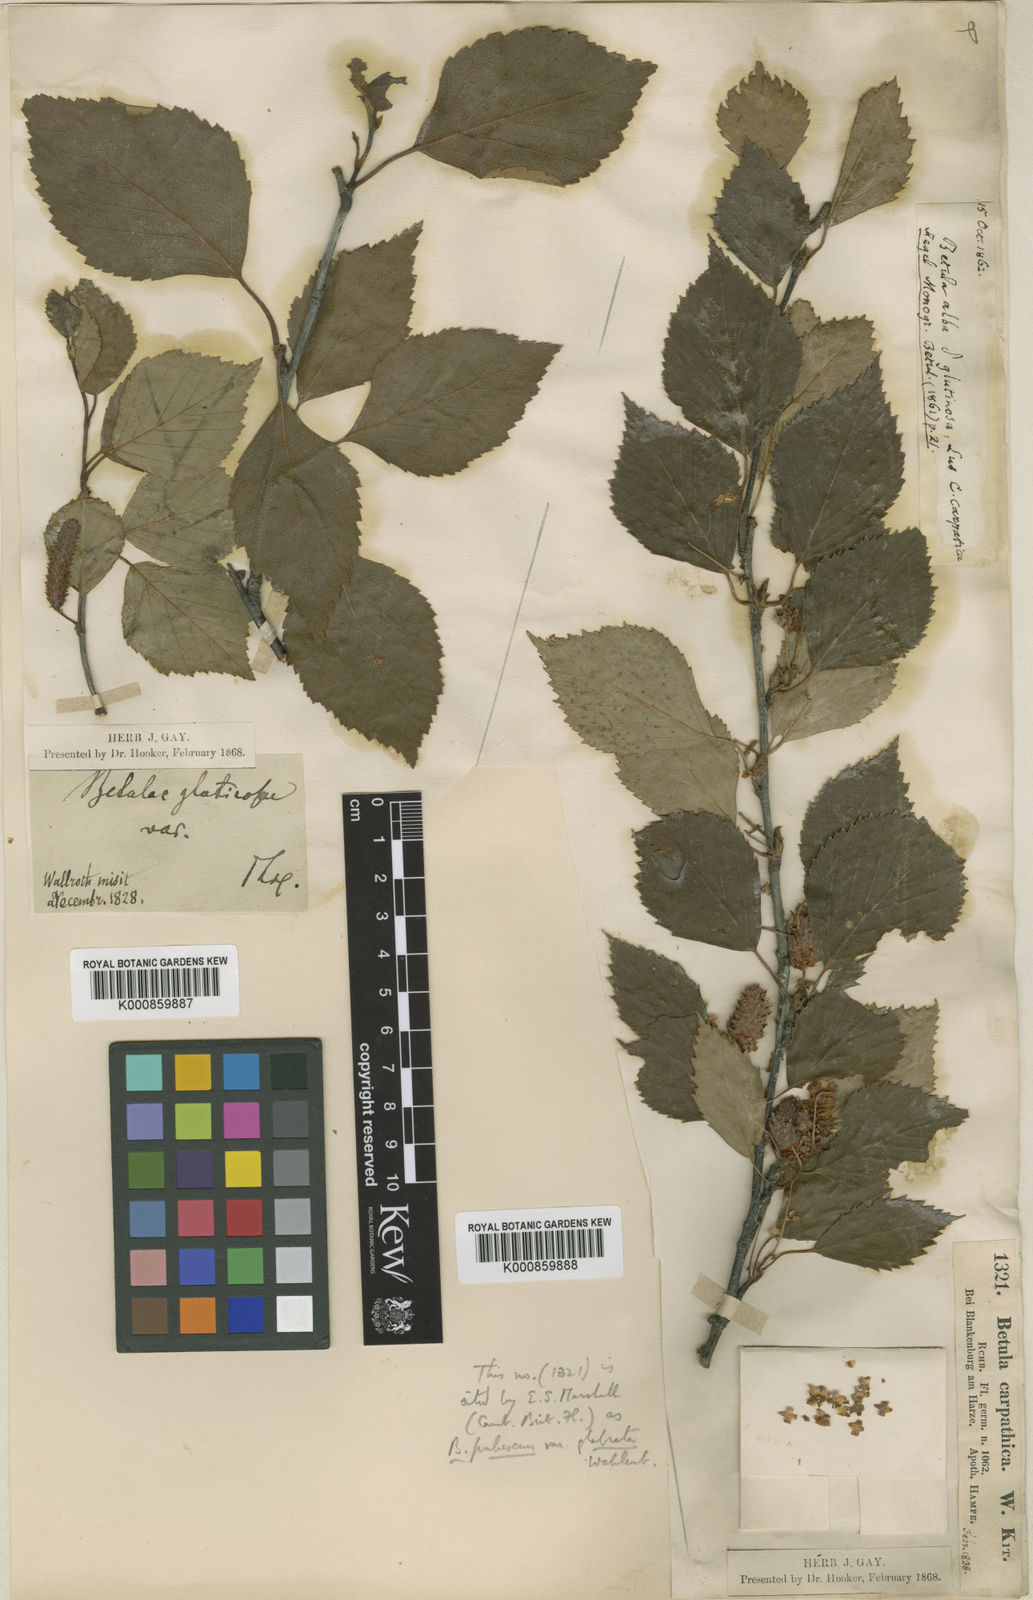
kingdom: Plantae
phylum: Tracheophyta
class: Magnoliopsida
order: Fagales
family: Betulaceae
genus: Betula
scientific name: Betula pubescens
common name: Downy birch
